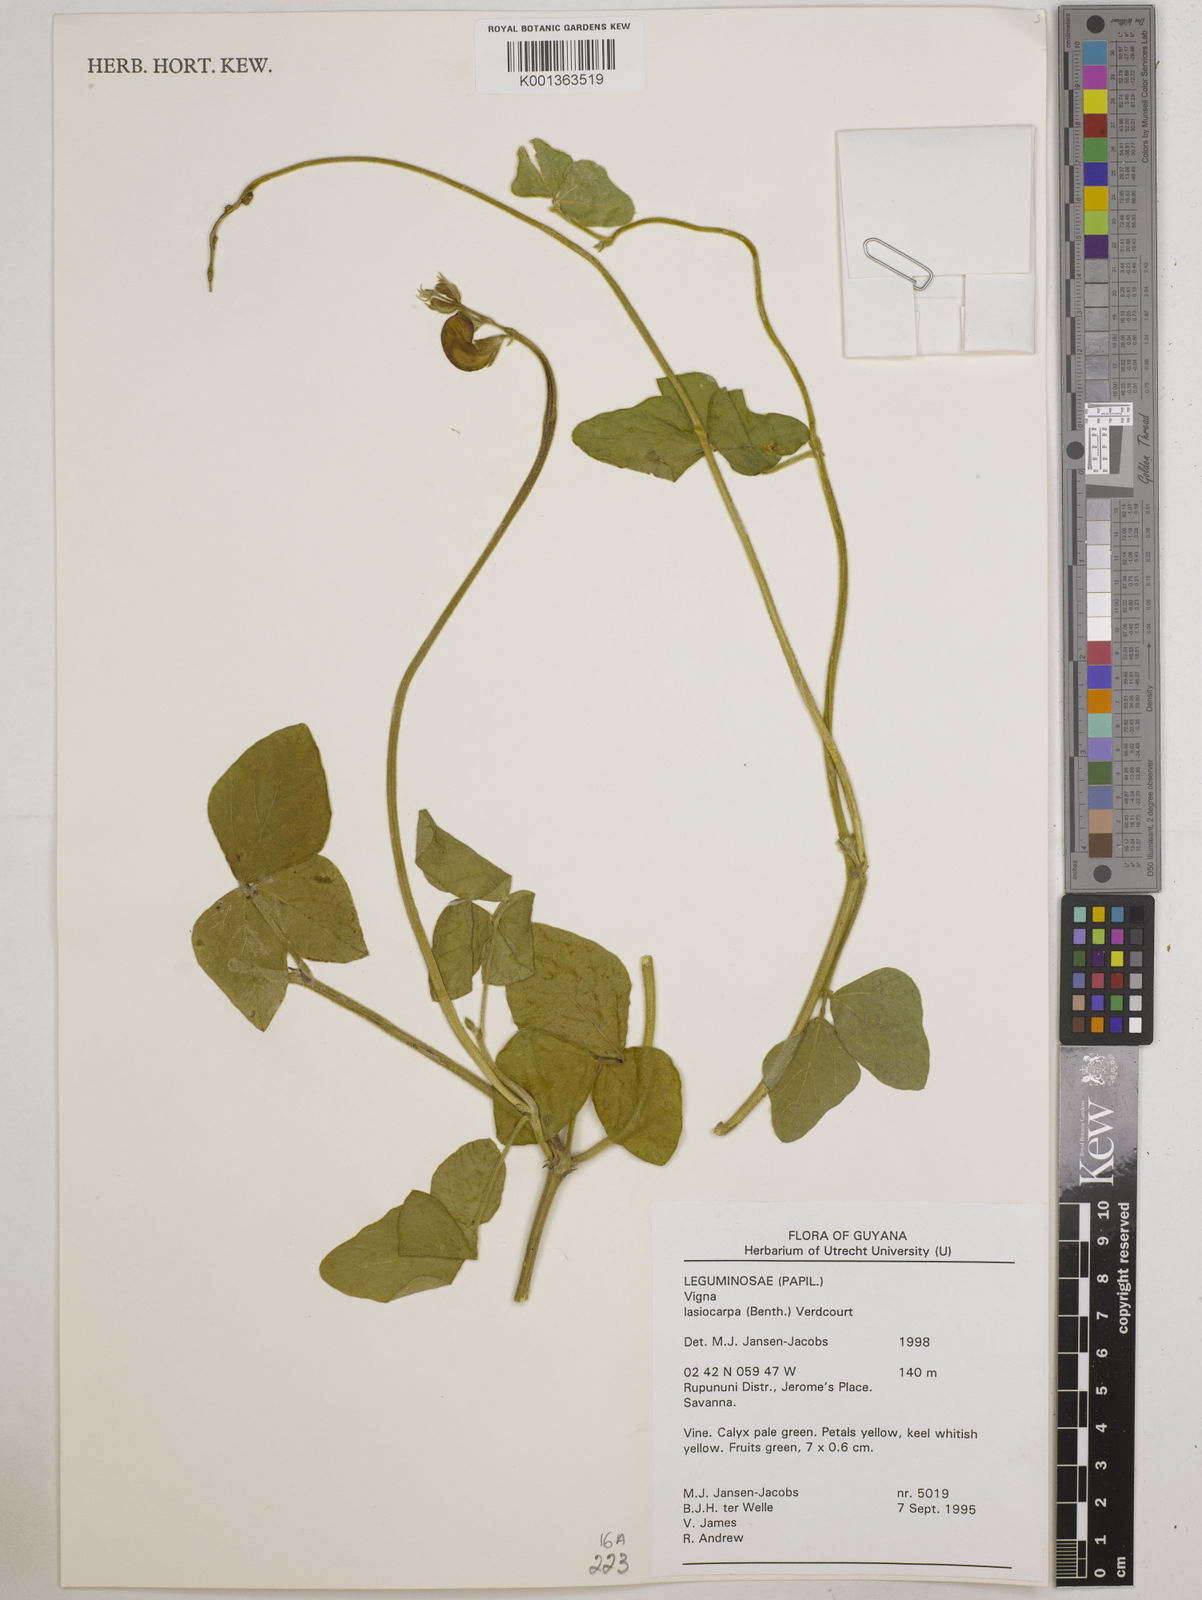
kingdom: Plantae
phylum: Tracheophyta
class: Magnoliopsida
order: Fabales
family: Fabaceae
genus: Vigna
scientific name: Vigna lasiocarpa
